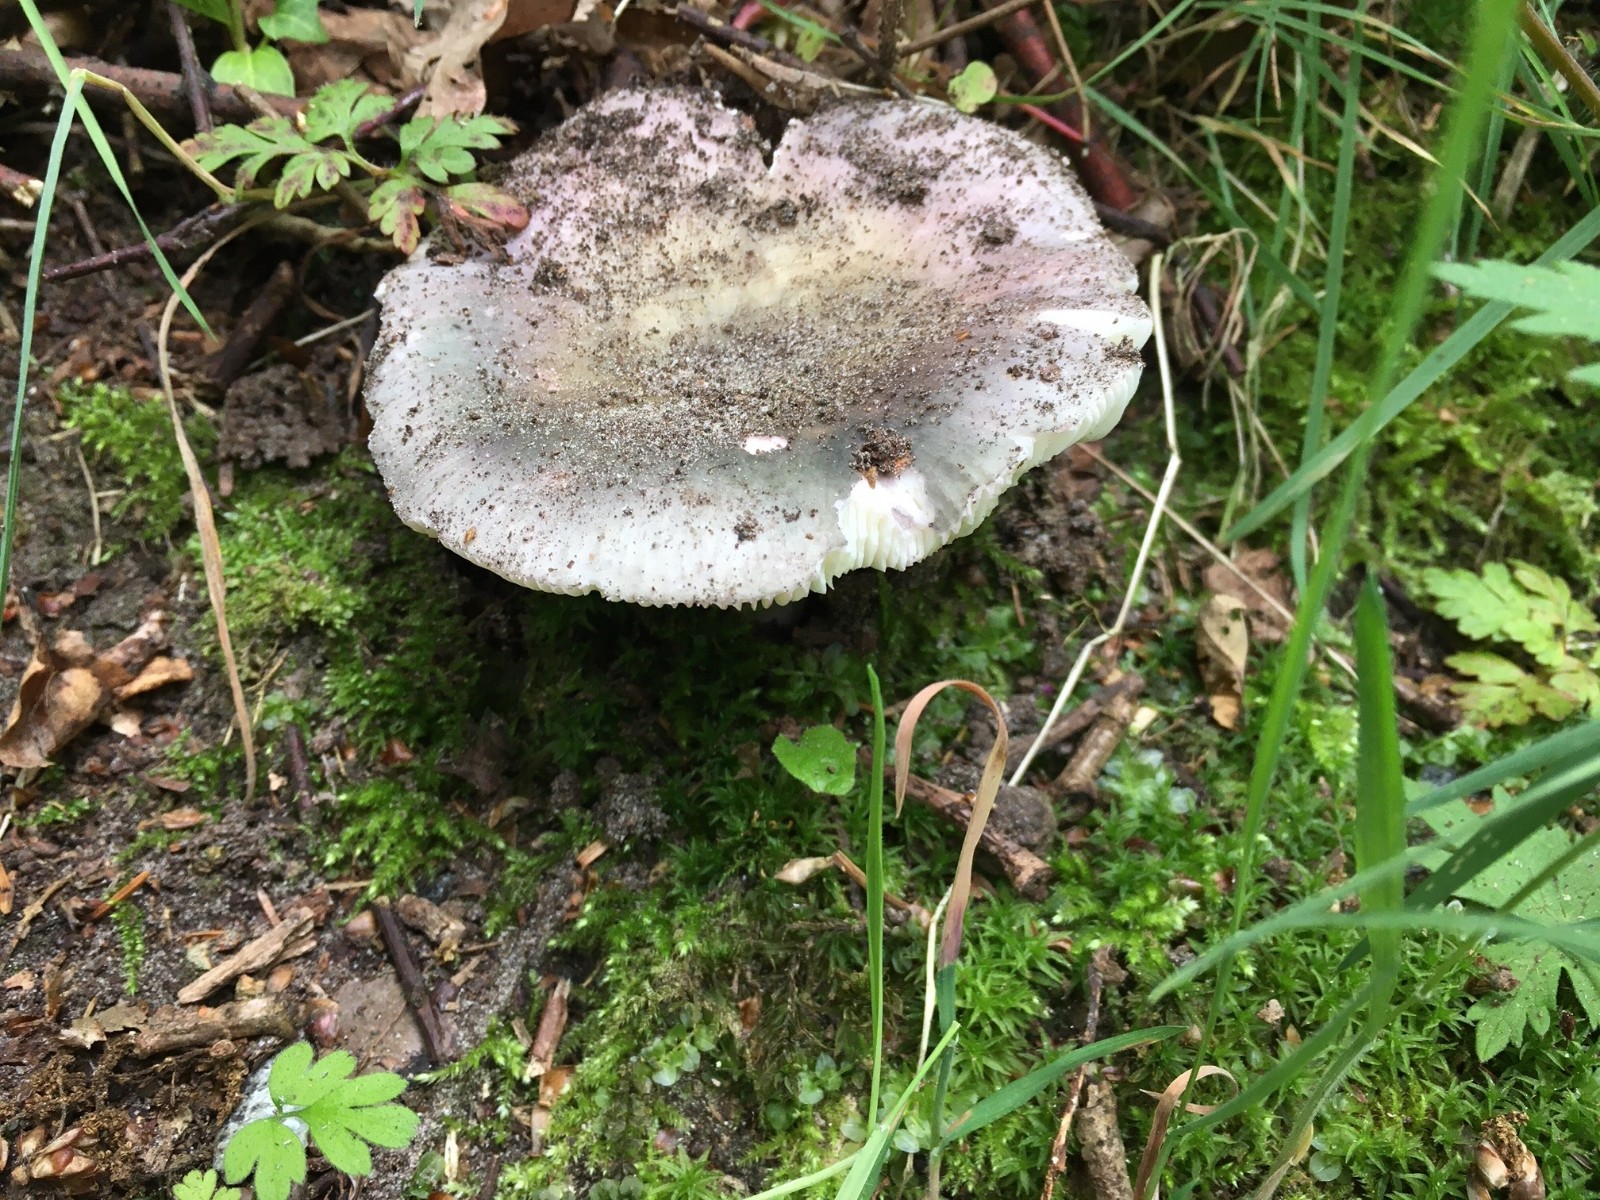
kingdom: Fungi
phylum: Basidiomycota
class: Agaricomycetes
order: Russulales
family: Russulaceae
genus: Russula
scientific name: Russula cyanoxantha
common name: broget skørhat
